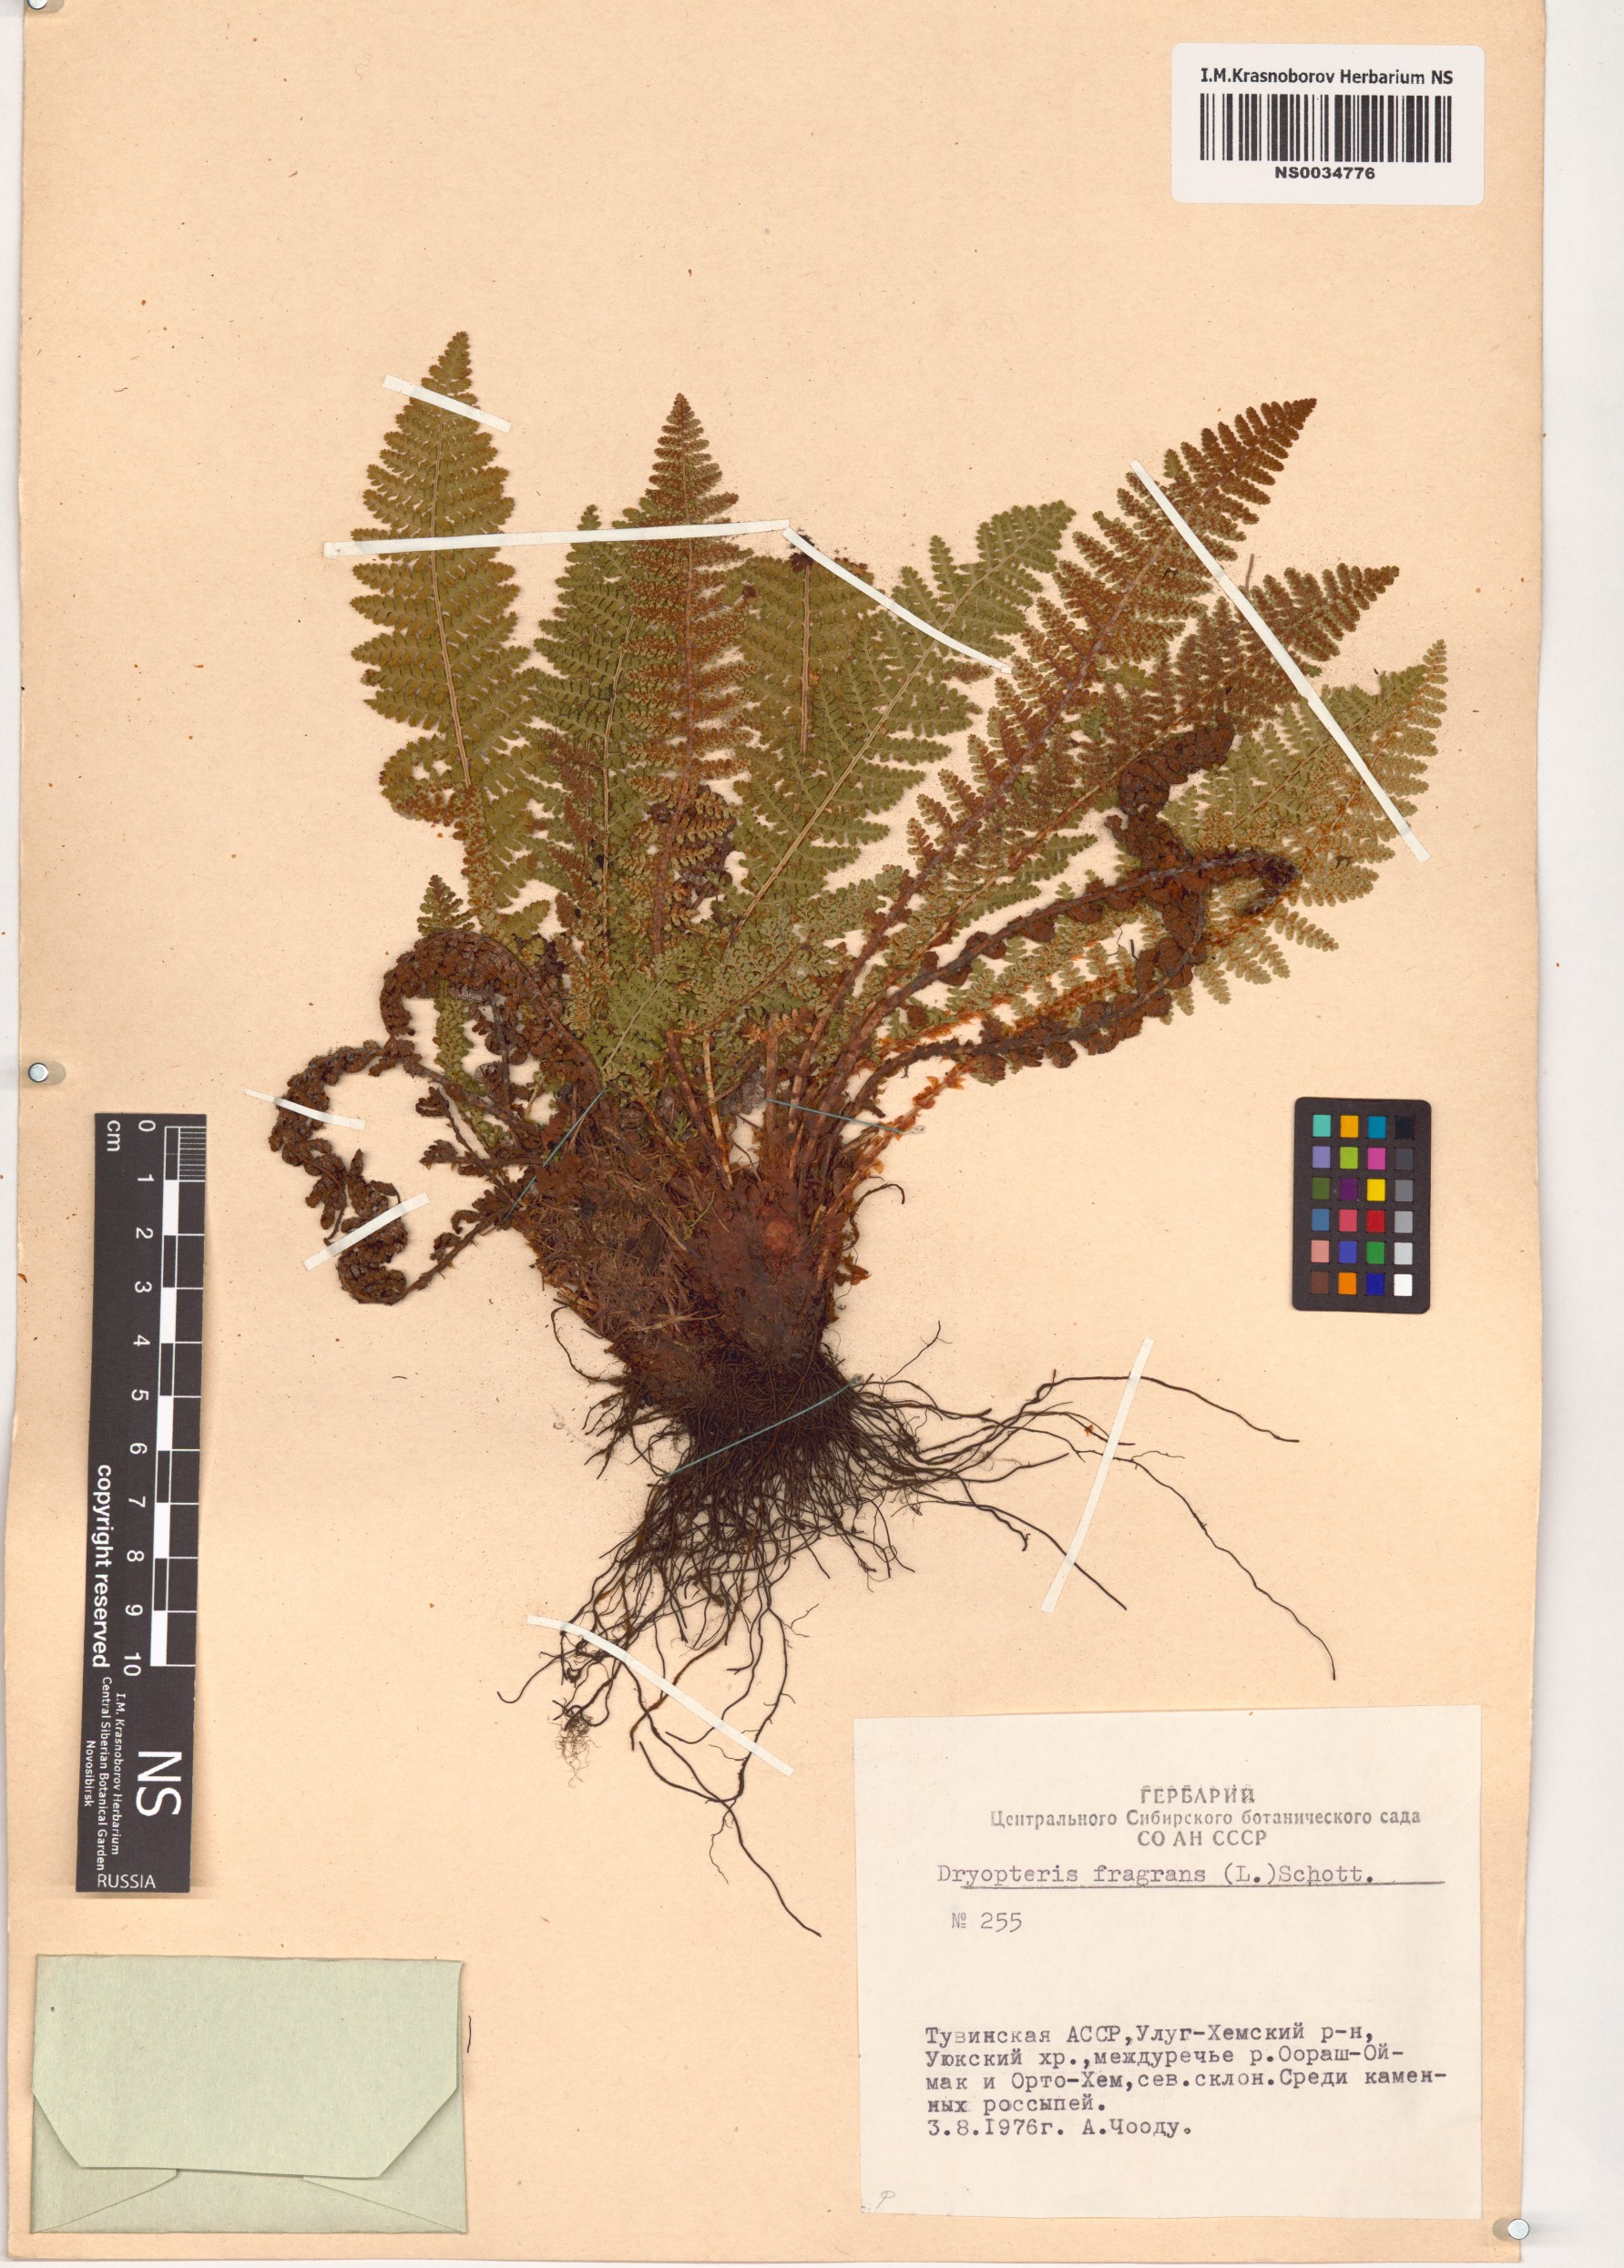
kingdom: Plantae
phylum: Tracheophyta
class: Polypodiopsida
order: Polypodiales
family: Dryopteridaceae
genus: Dryopteris
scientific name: Dryopteris fragrans
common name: Fragrant wood fern
